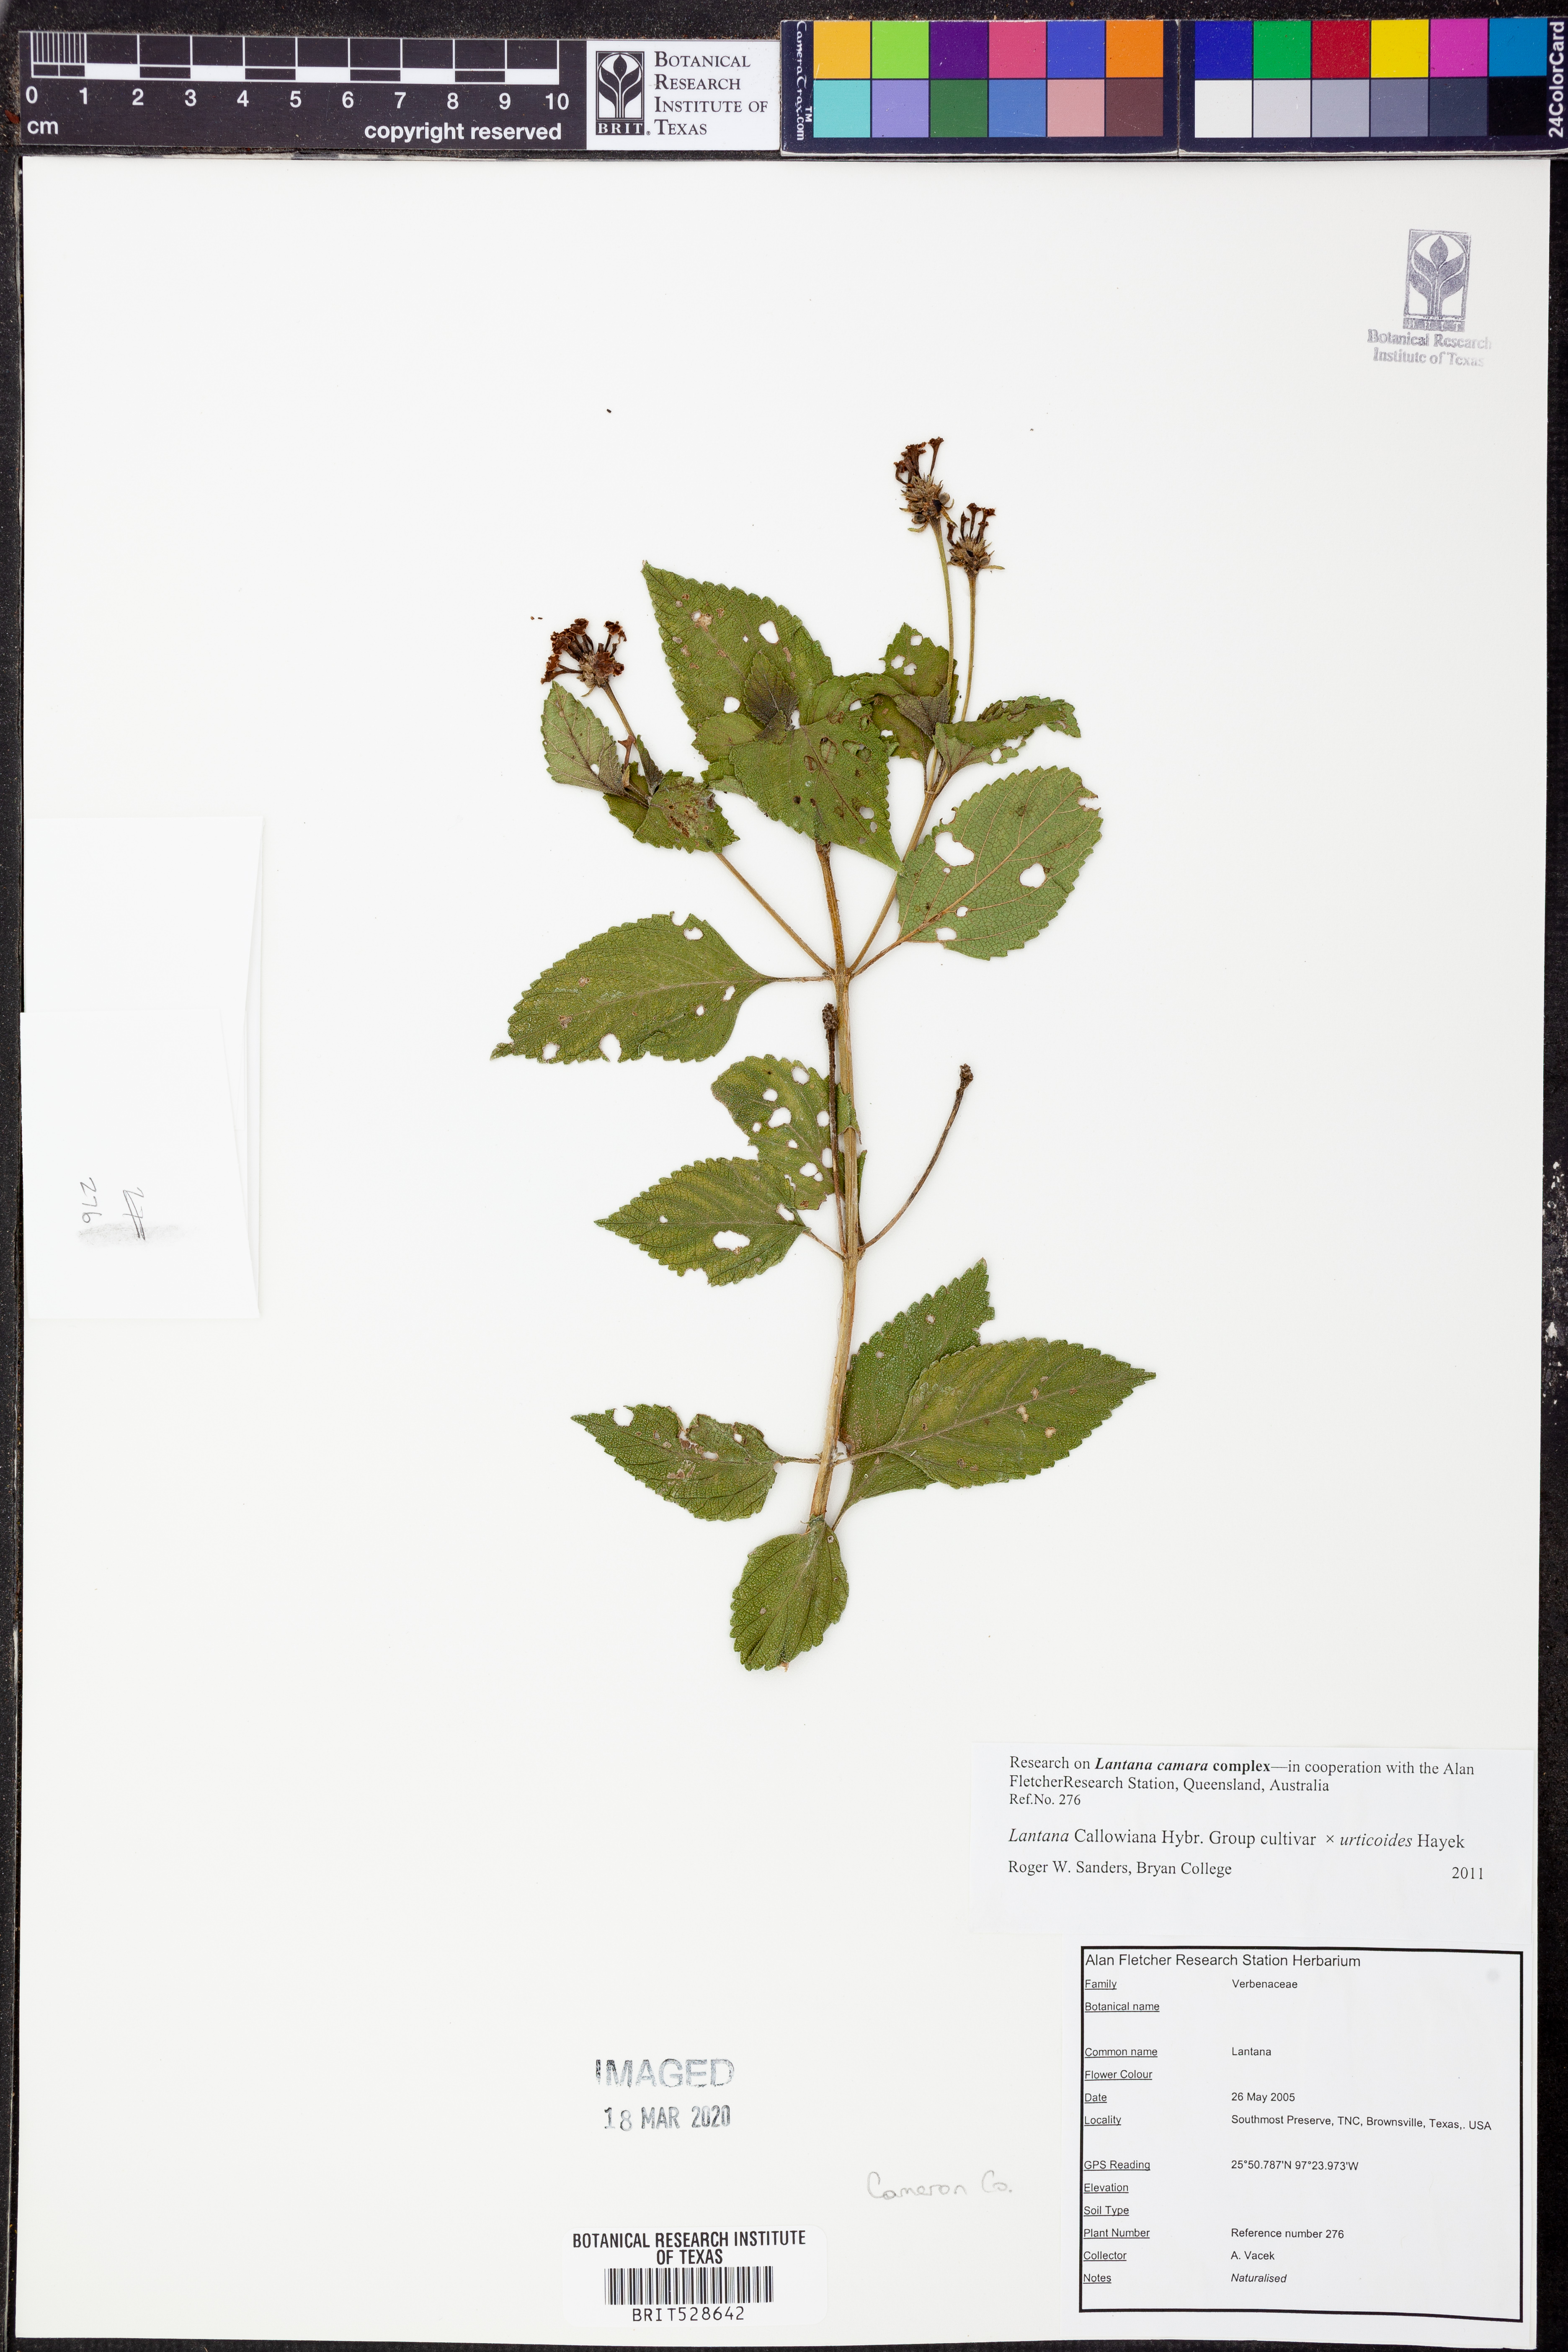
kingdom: Plantae
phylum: Tracheophyta
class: Magnoliopsida
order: Lamiales
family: Verbenaceae
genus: Lantana
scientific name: Lantana
